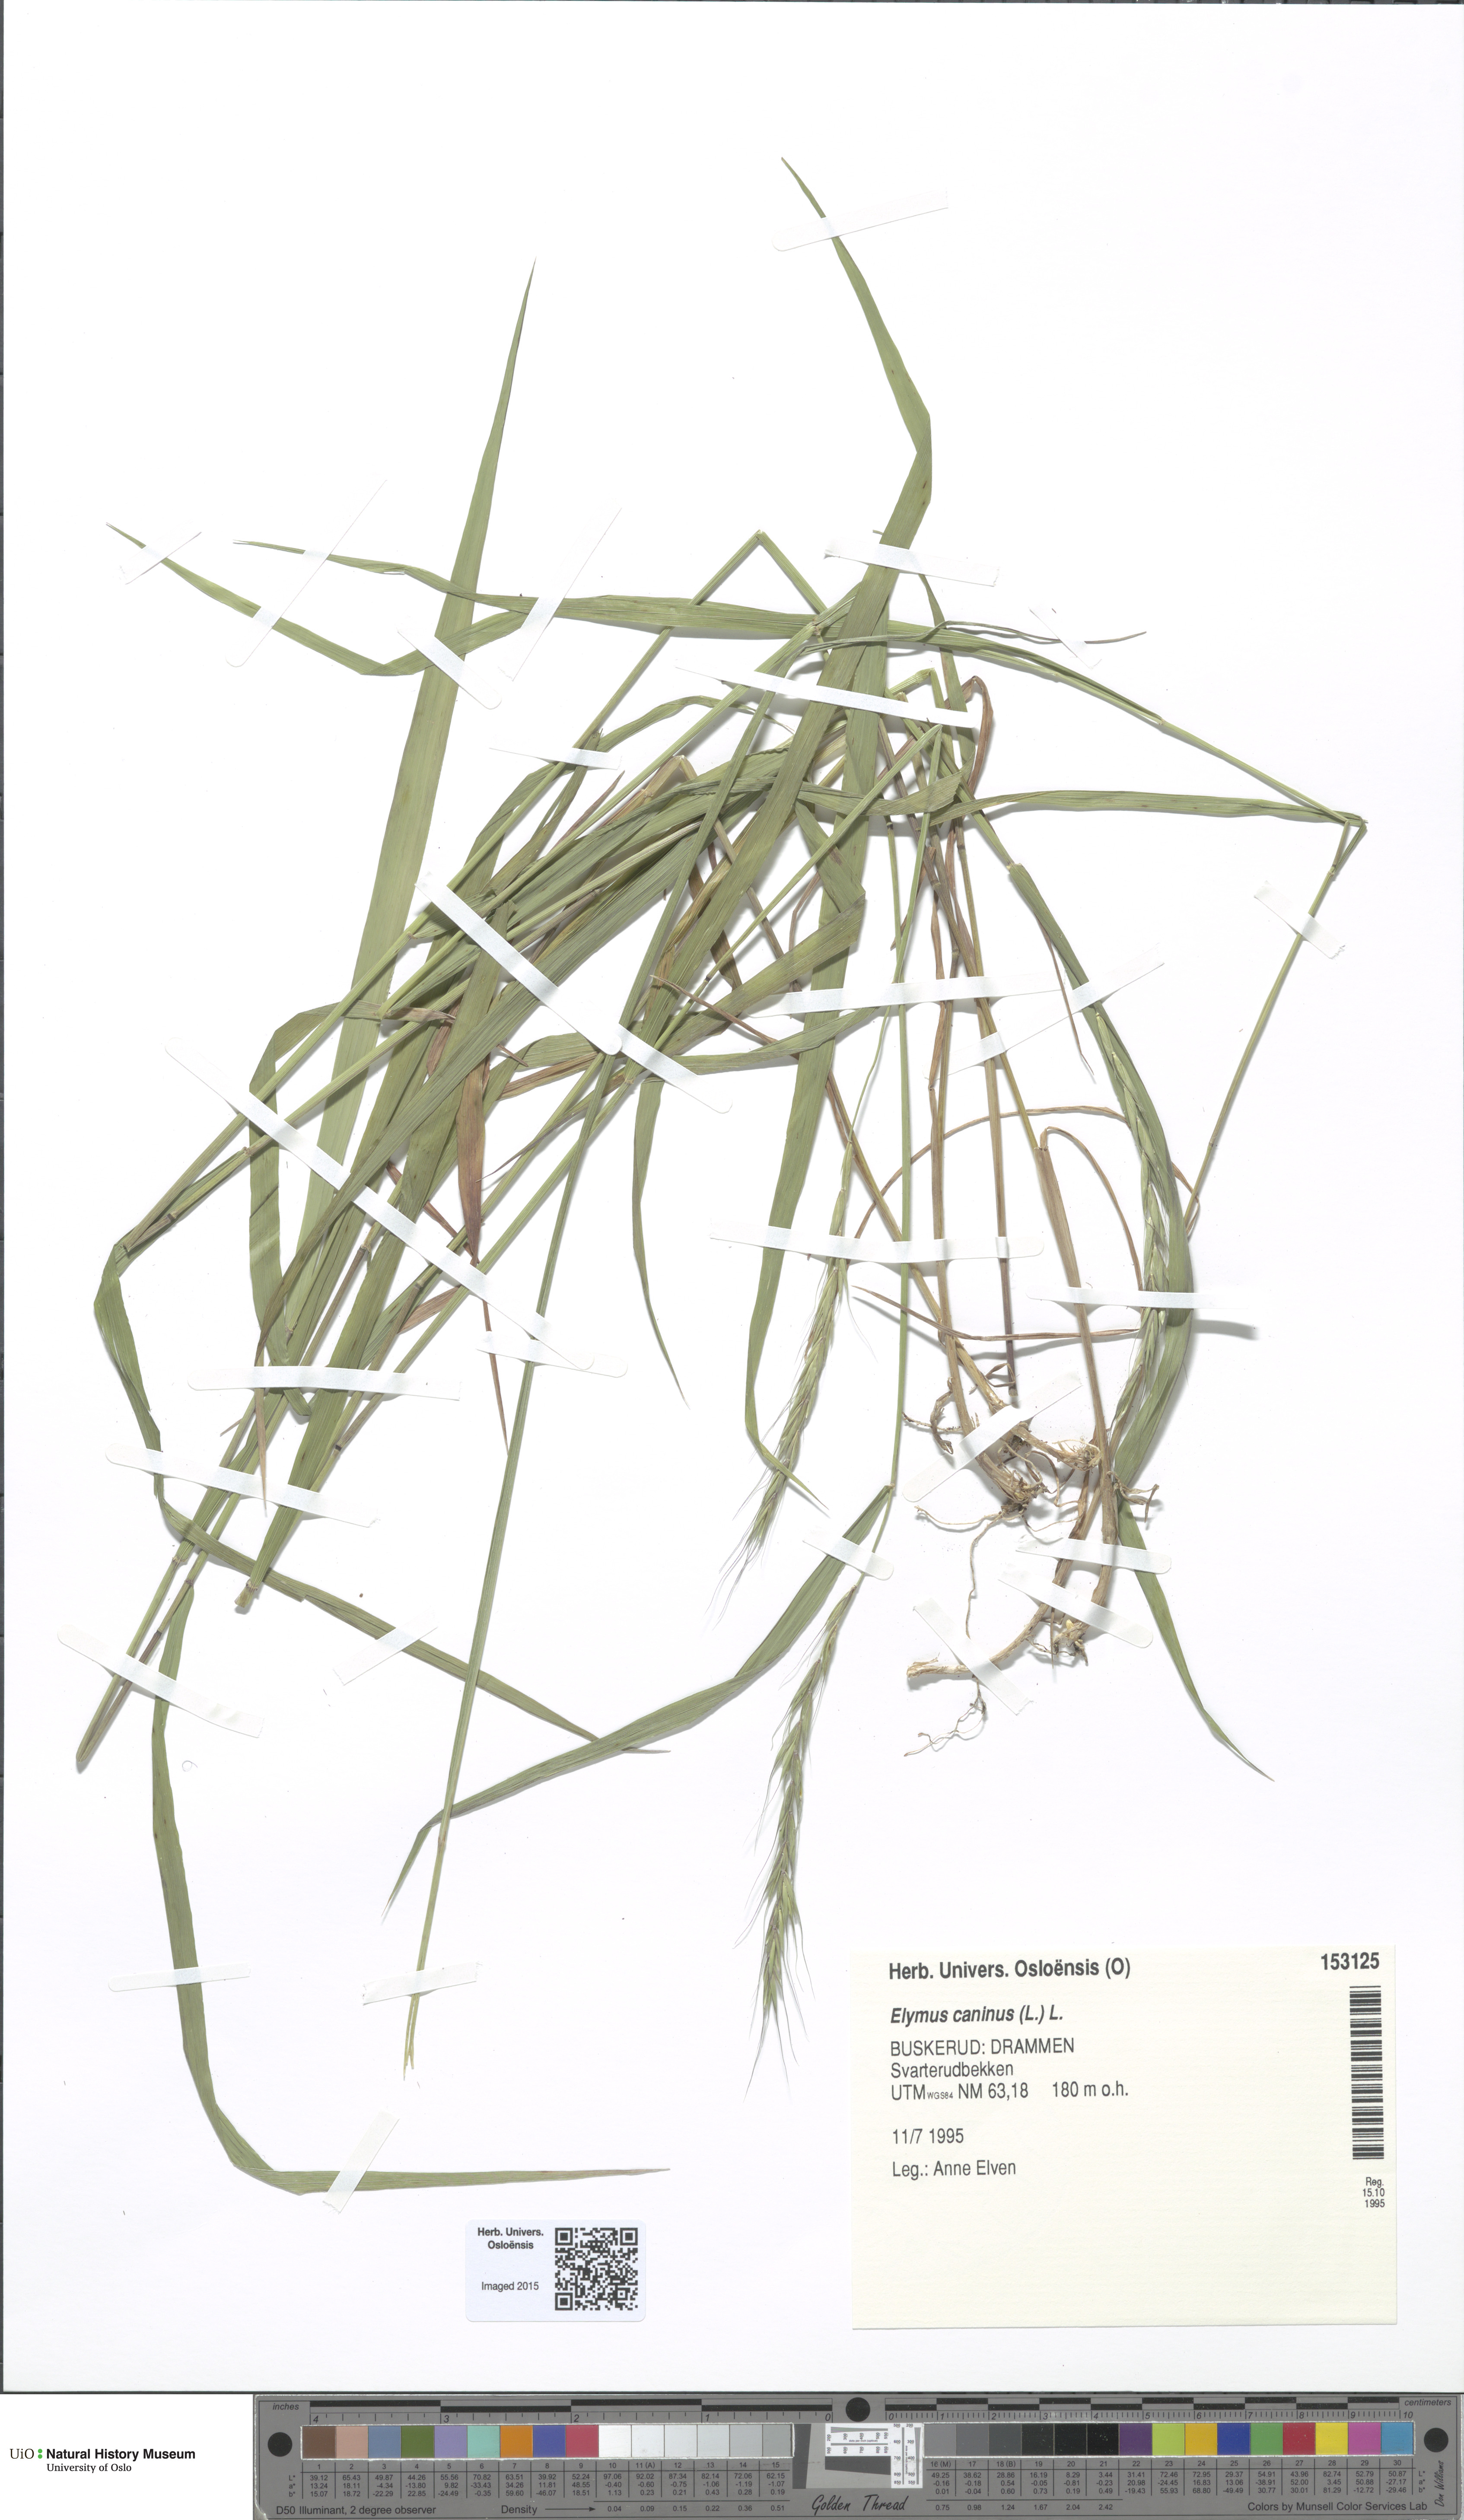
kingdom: Plantae
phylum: Tracheophyta
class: Liliopsida
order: Poales
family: Poaceae
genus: Elymus
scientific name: Elymus caninus
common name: Bearded couch
